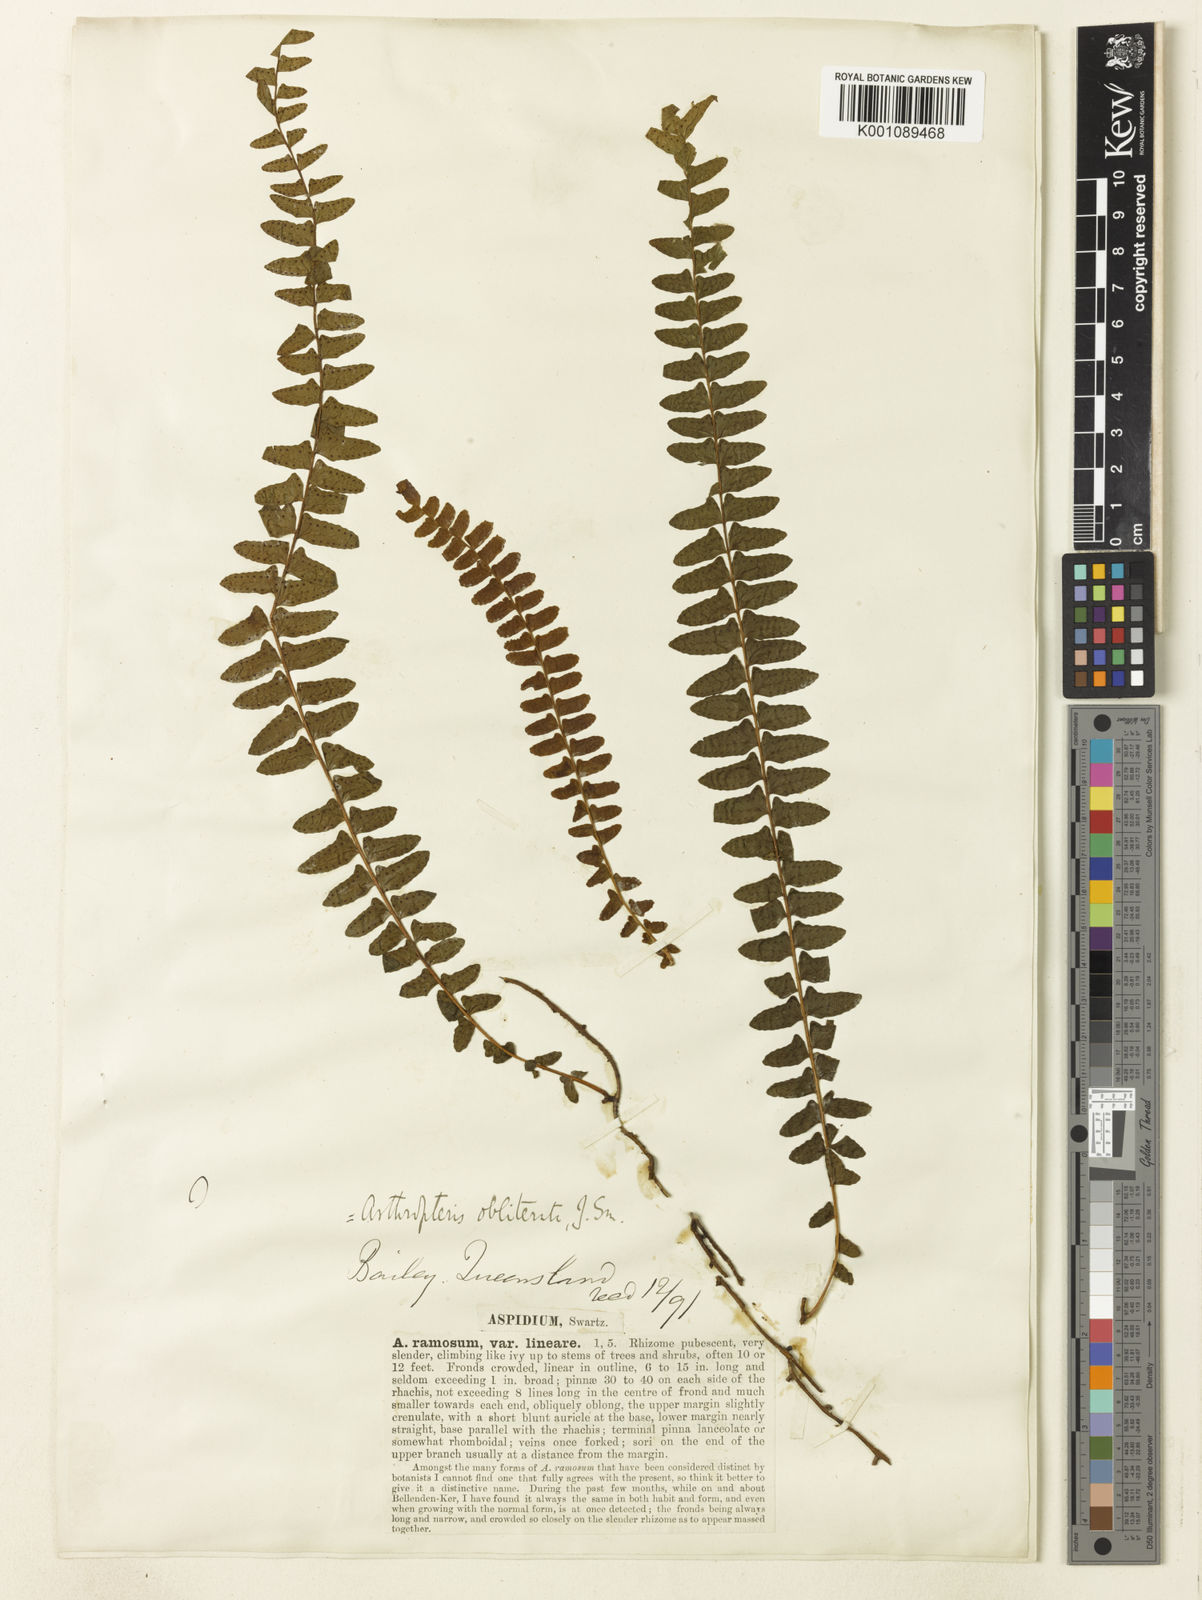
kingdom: Plantae
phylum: Tracheophyta
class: Polypodiopsida
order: Polypodiales
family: Tectariaceae
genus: Arthropteris
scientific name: Arthropteris palisotii
